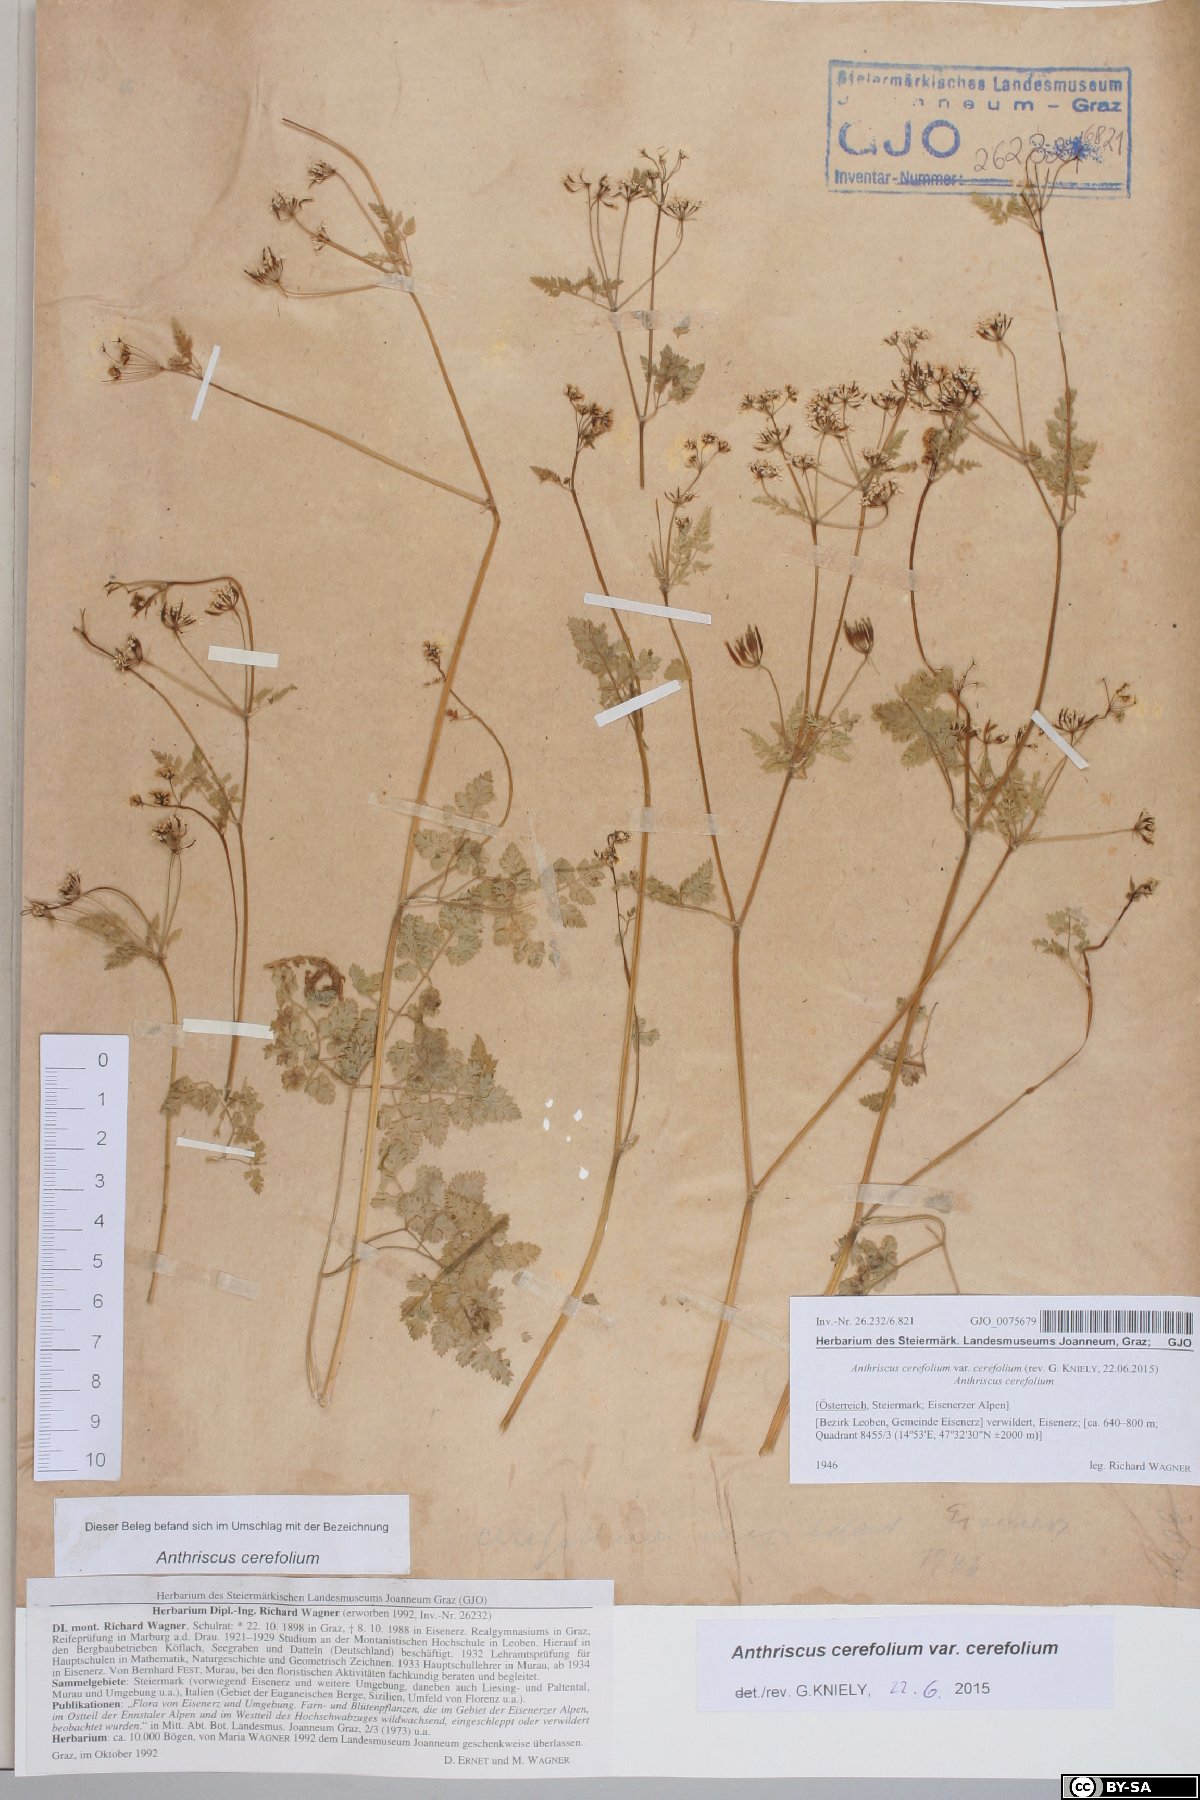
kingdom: Plantae
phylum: Tracheophyta
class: Magnoliopsida
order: Apiales
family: Apiaceae
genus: Anthriscus
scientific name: Anthriscus cerefolium
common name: Garden chervil
